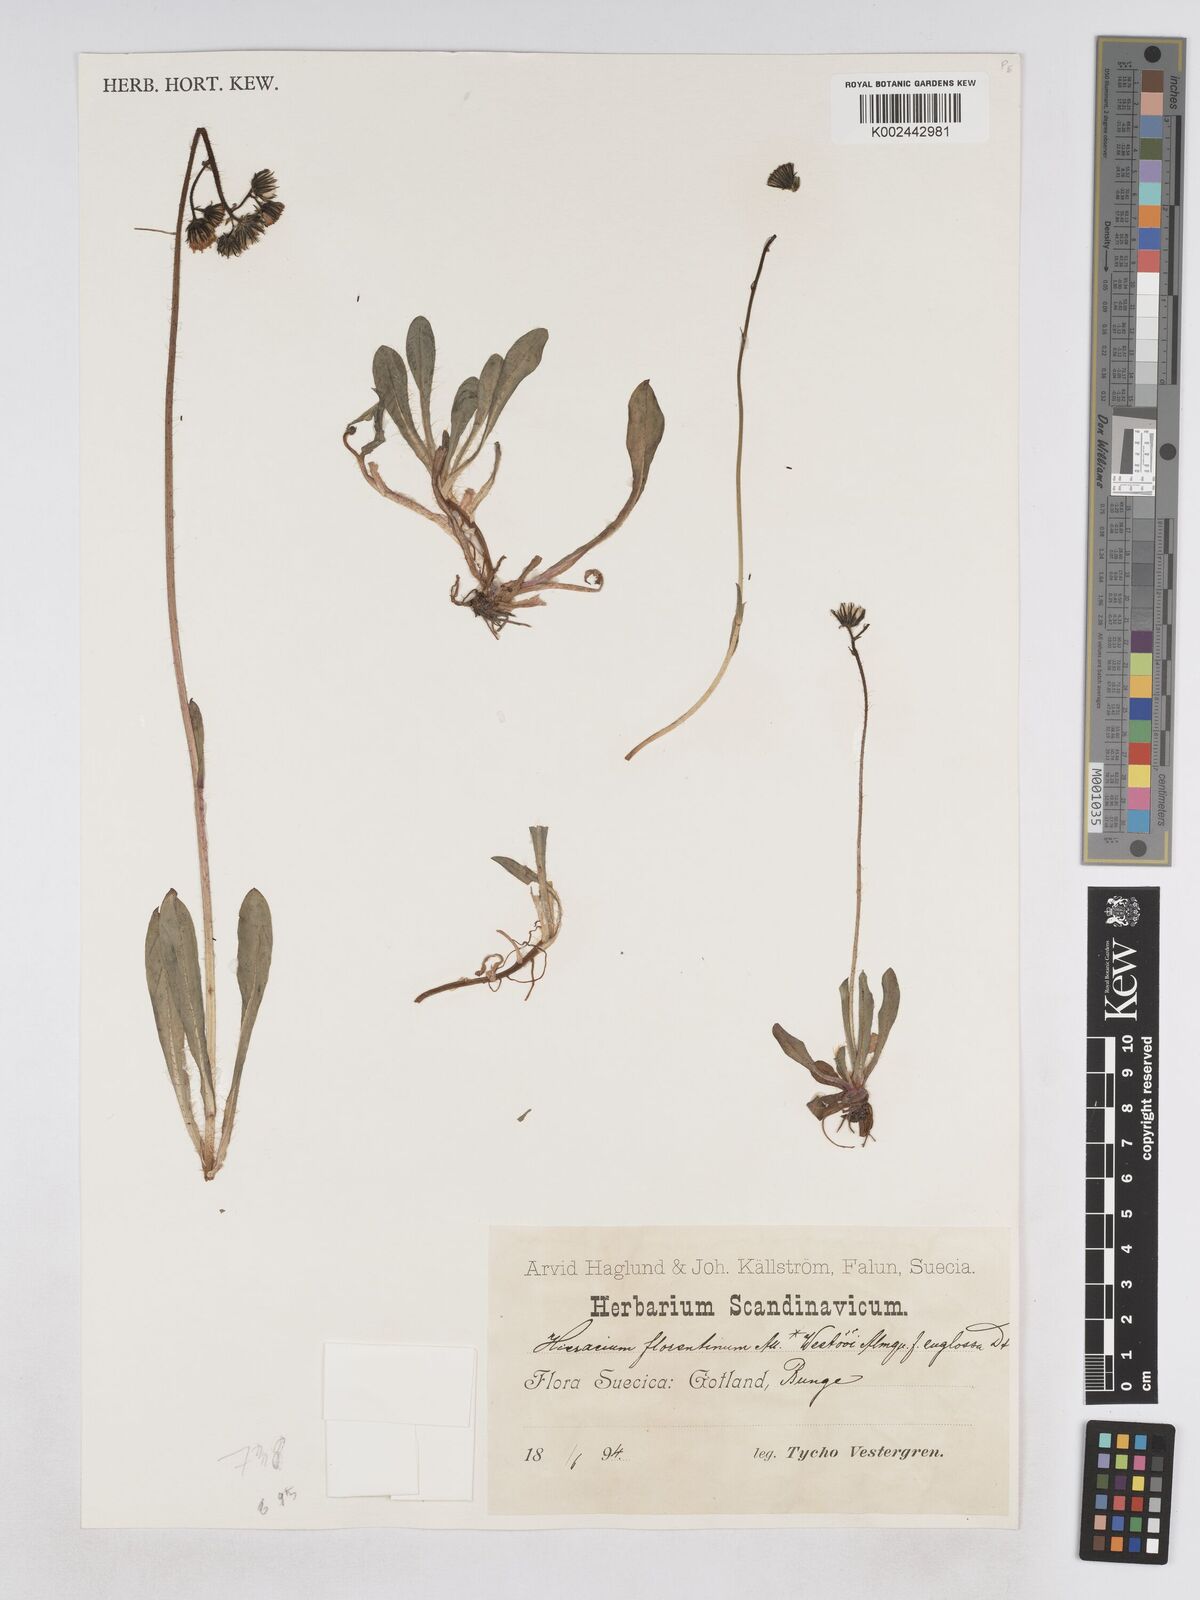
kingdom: Plantae
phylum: Tracheophyta
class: Magnoliopsida
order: Asterales
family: Asteraceae
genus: Pilosella
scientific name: Pilosella piloselloides
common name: Glaucous king-devil
